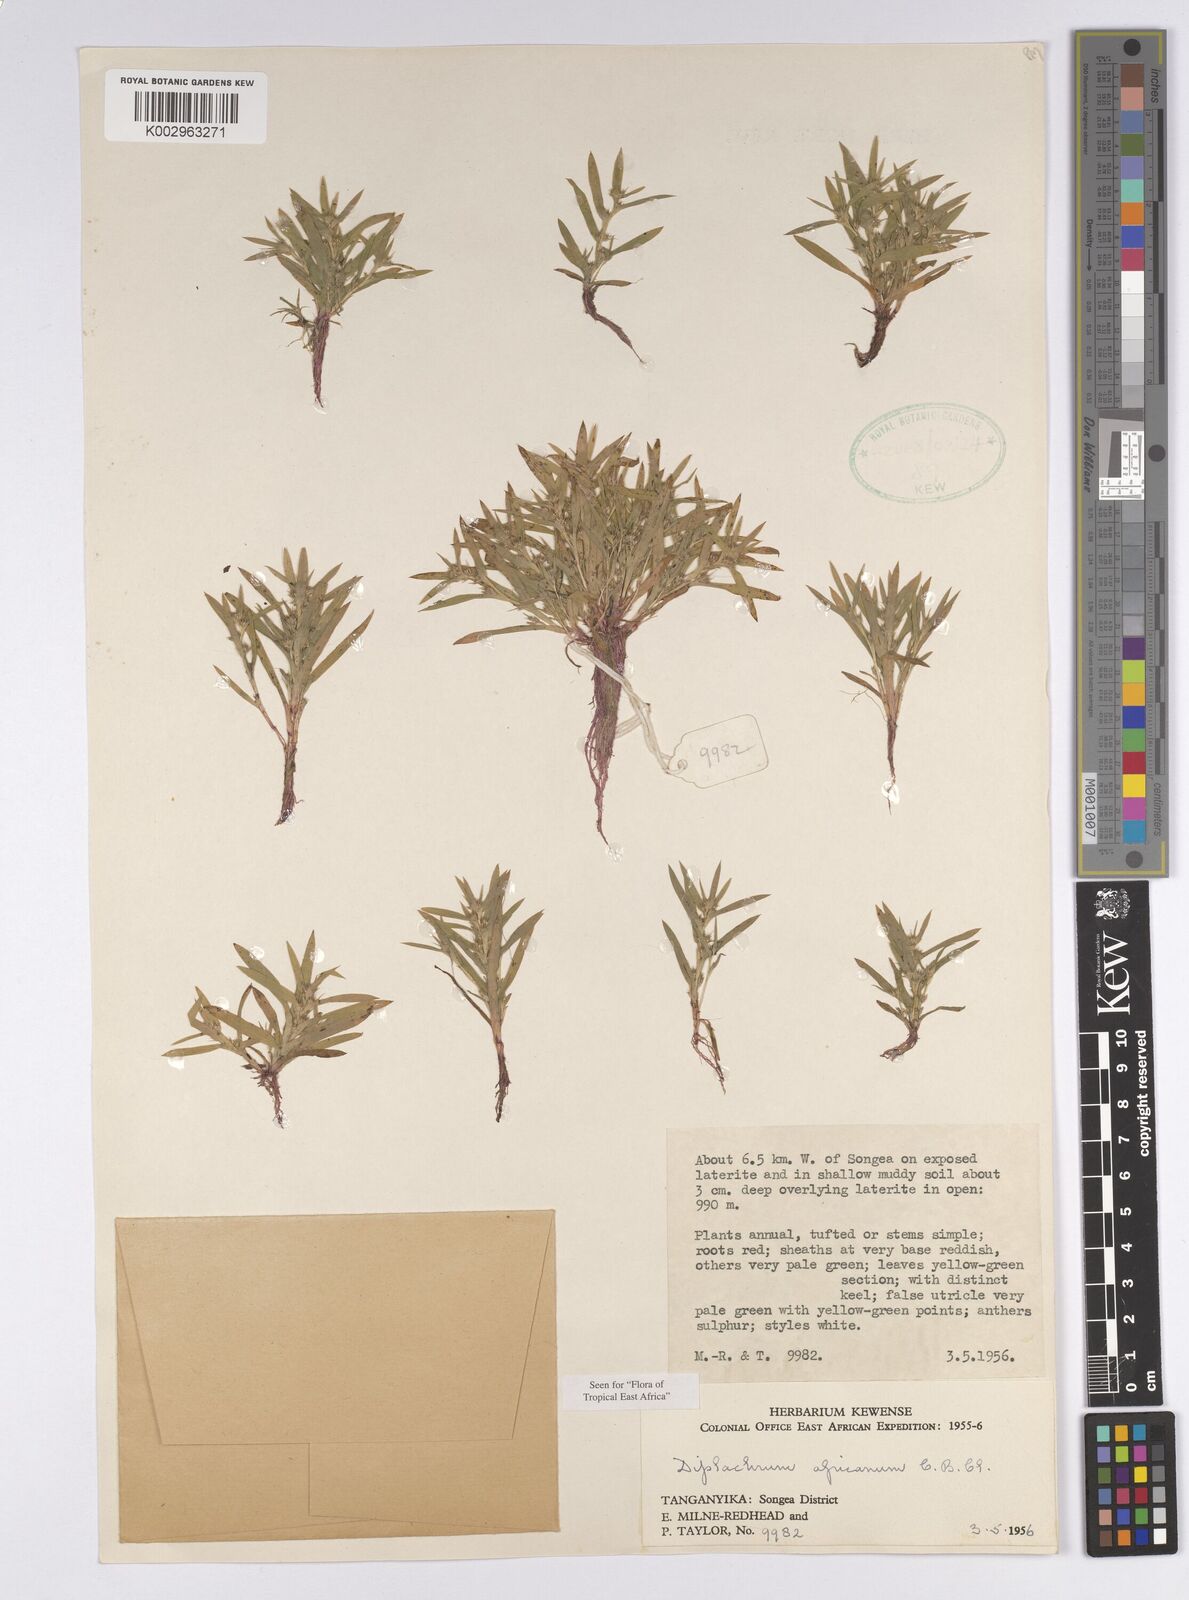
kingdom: Plantae
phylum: Tracheophyta
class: Liliopsida
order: Poales
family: Cyperaceae
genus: Diplacrum
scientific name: Diplacrum africanum
